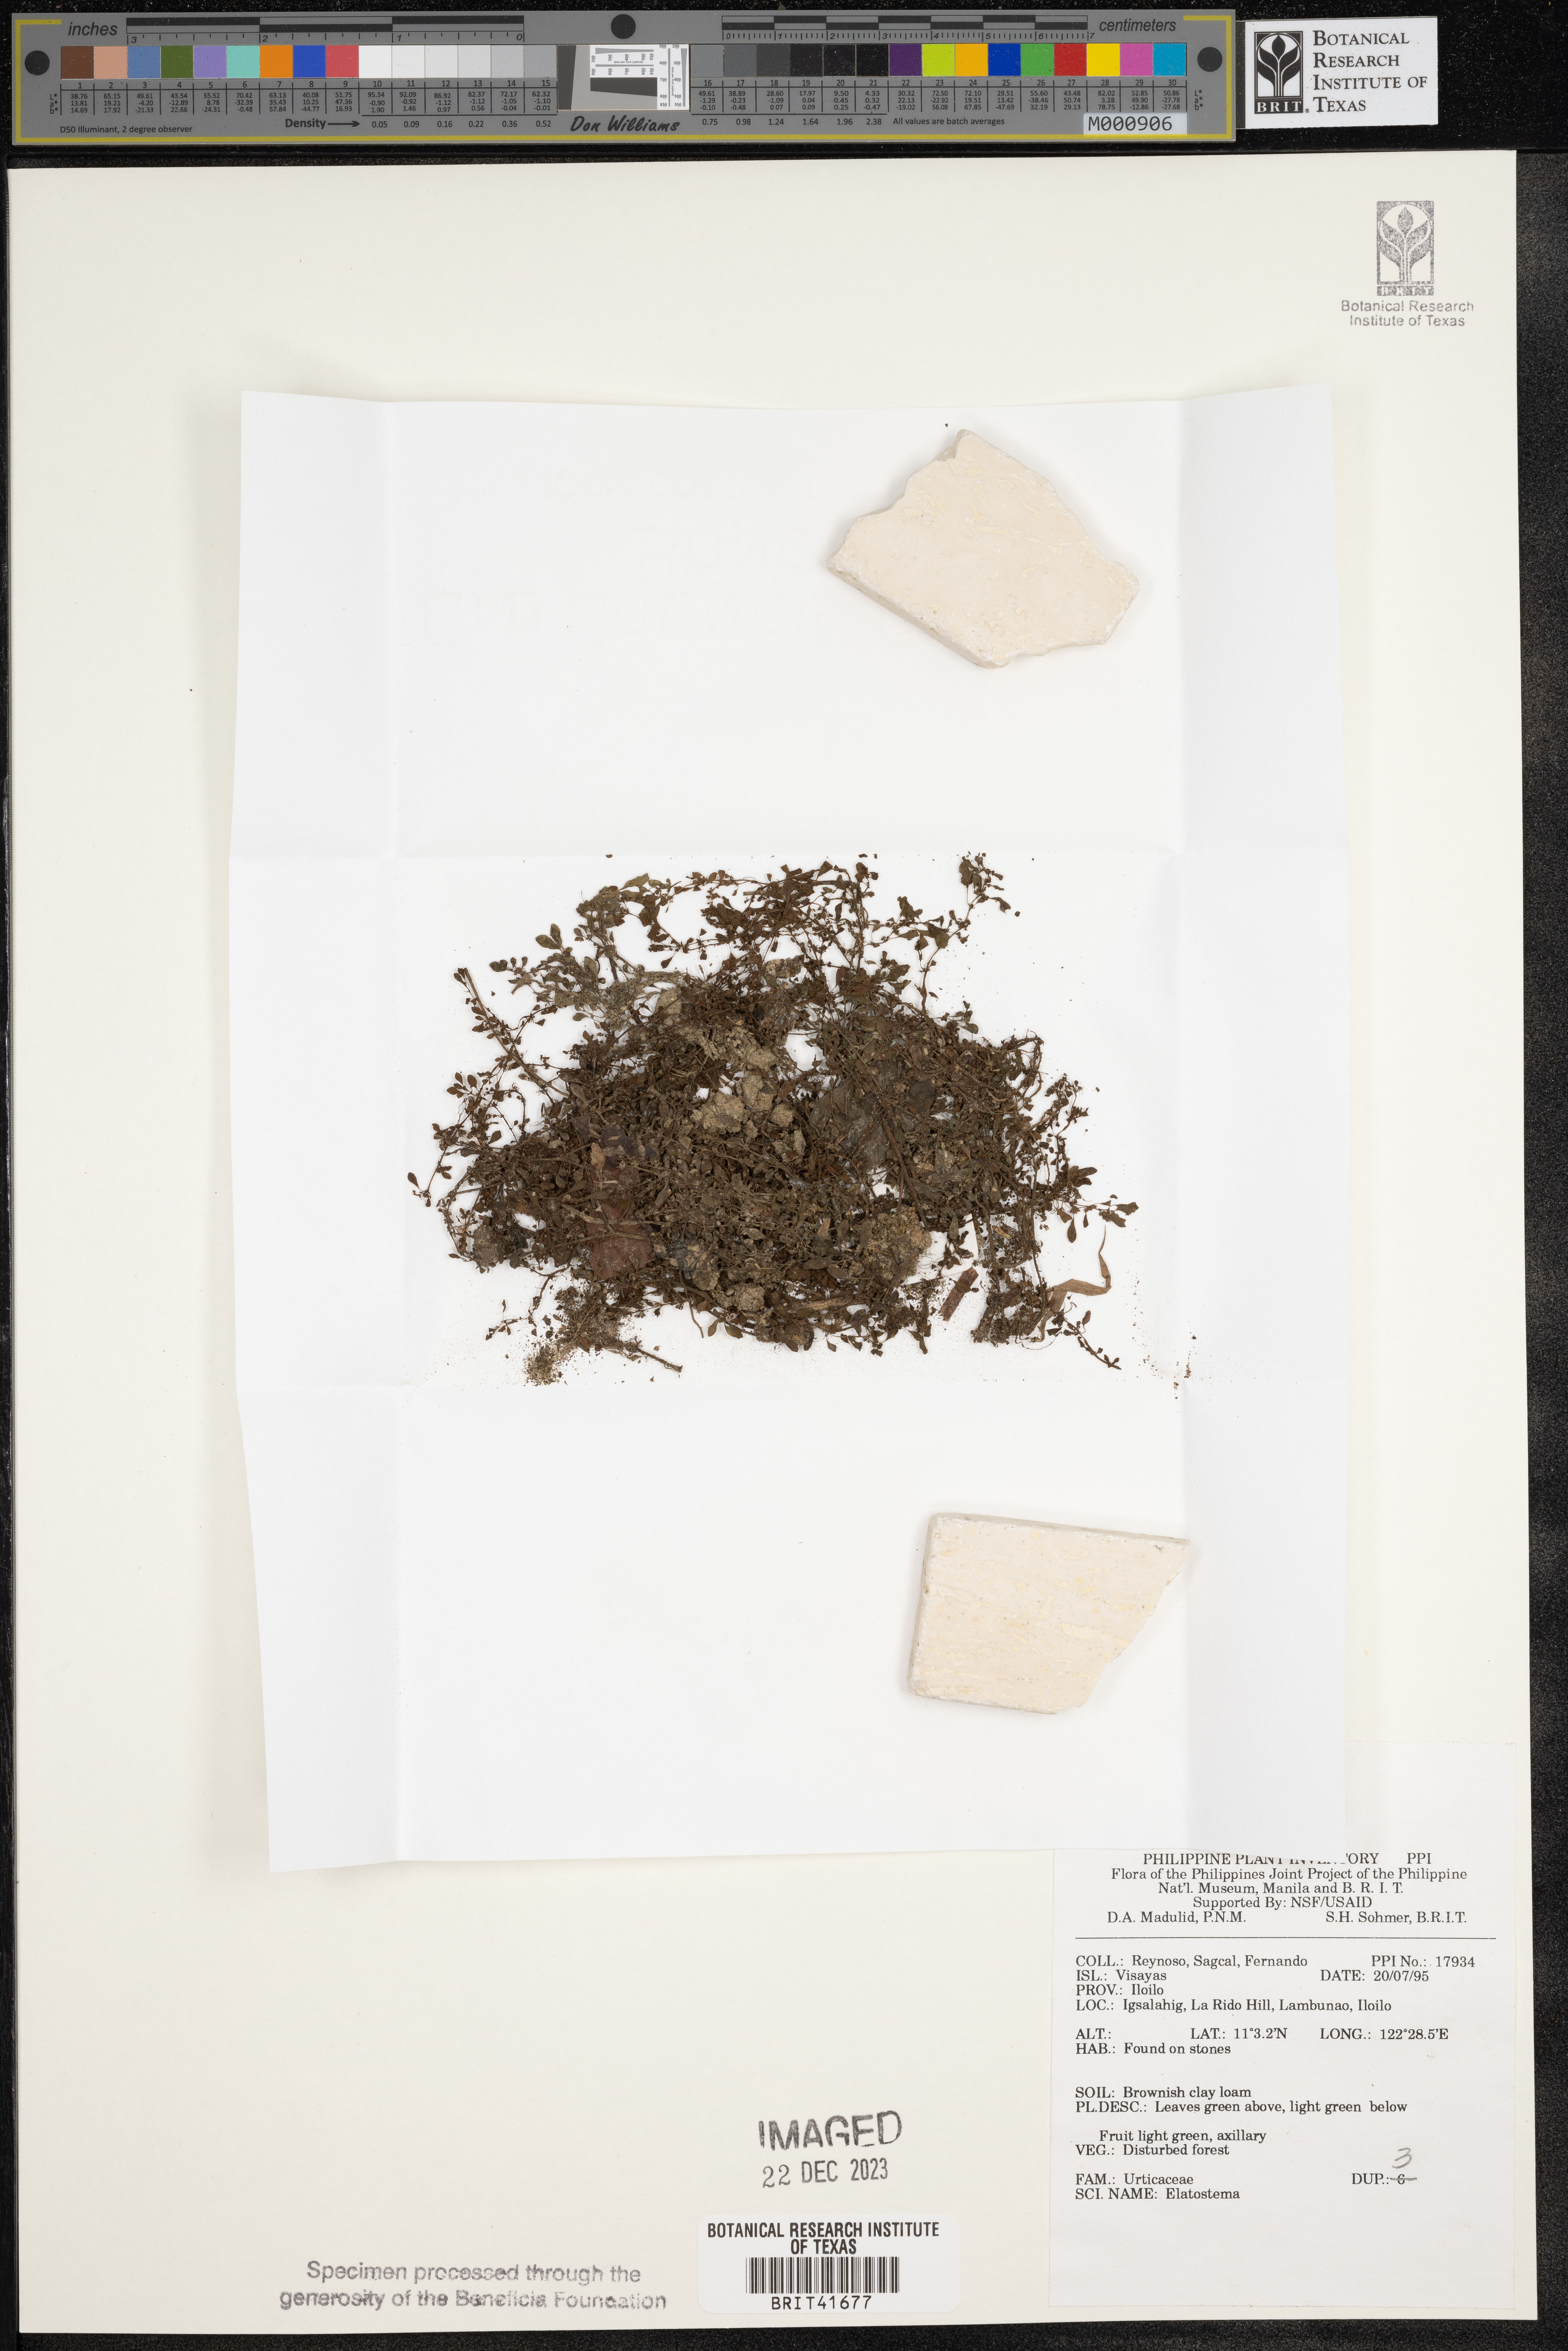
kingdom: Plantae
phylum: Tracheophyta
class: Magnoliopsida
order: Rosales
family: Urticaceae
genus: Elatostema
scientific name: Elatostema
